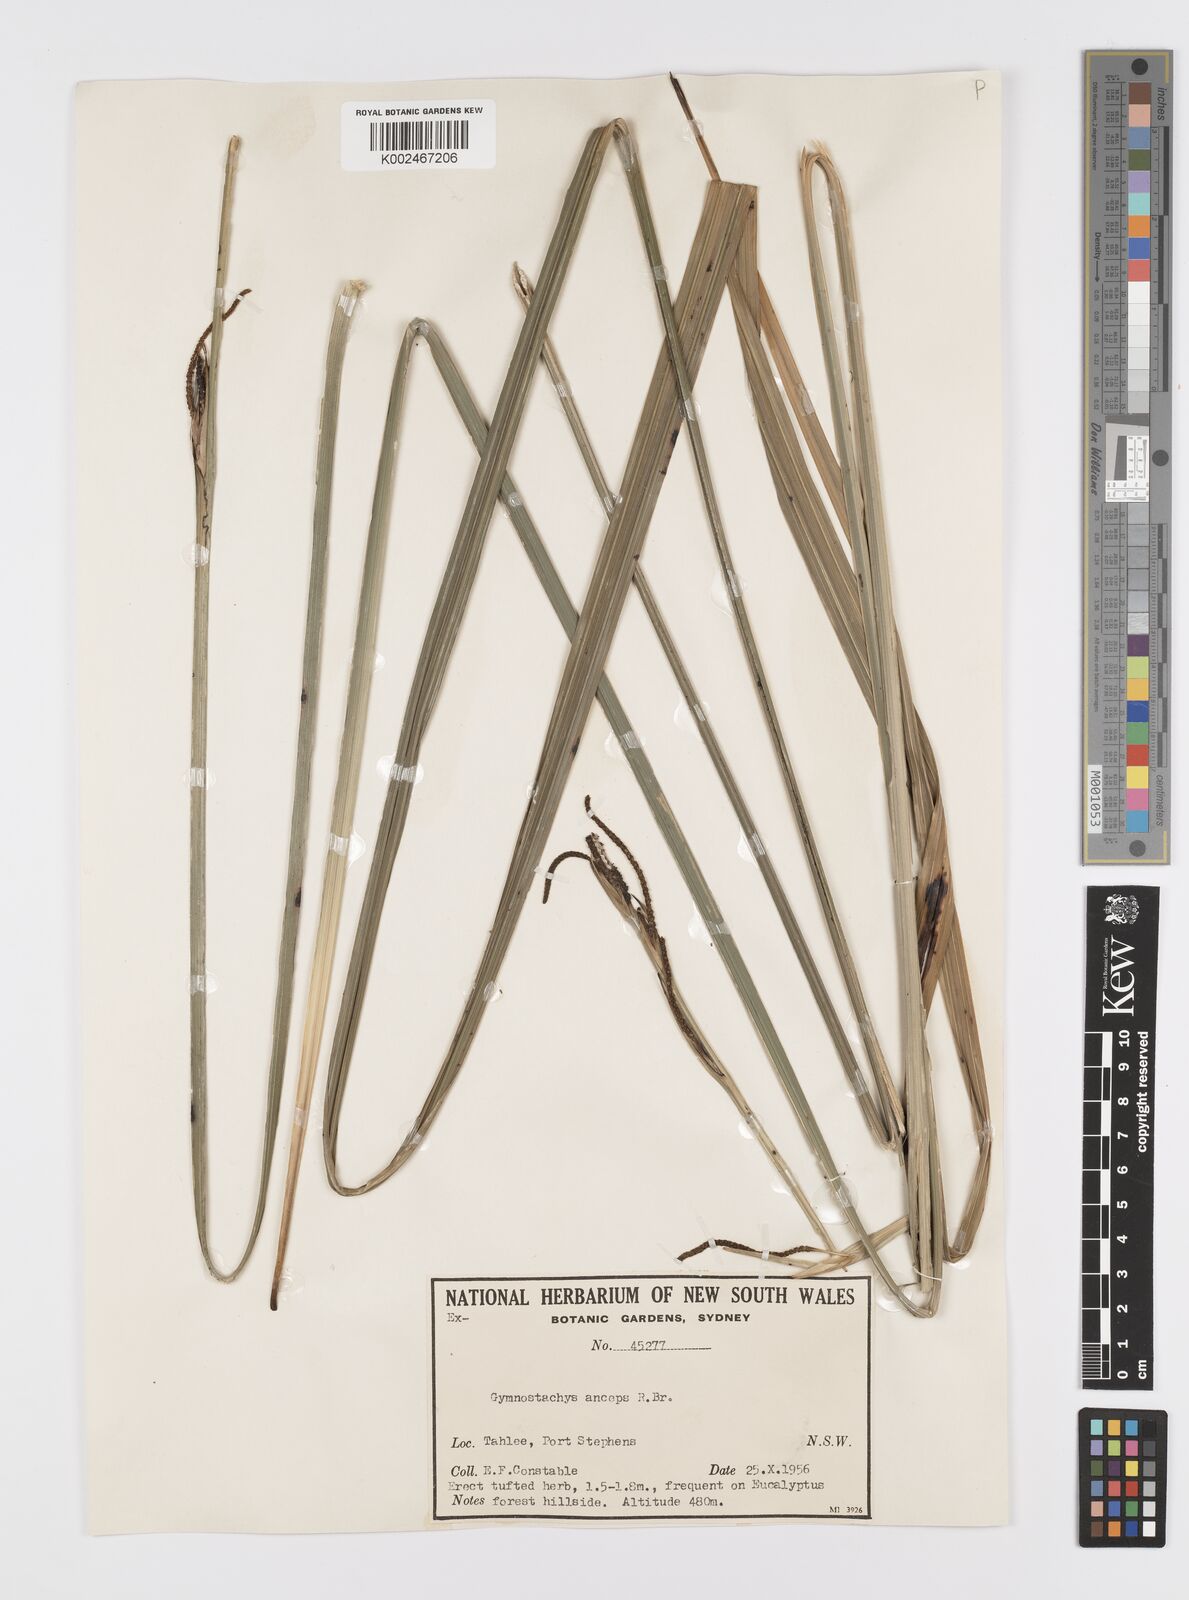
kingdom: Plantae
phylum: Tracheophyta
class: Liliopsida
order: Alismatales
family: Araceae
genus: Gymnostachys
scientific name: Gymnostachys anceps
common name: Settler's-flax
